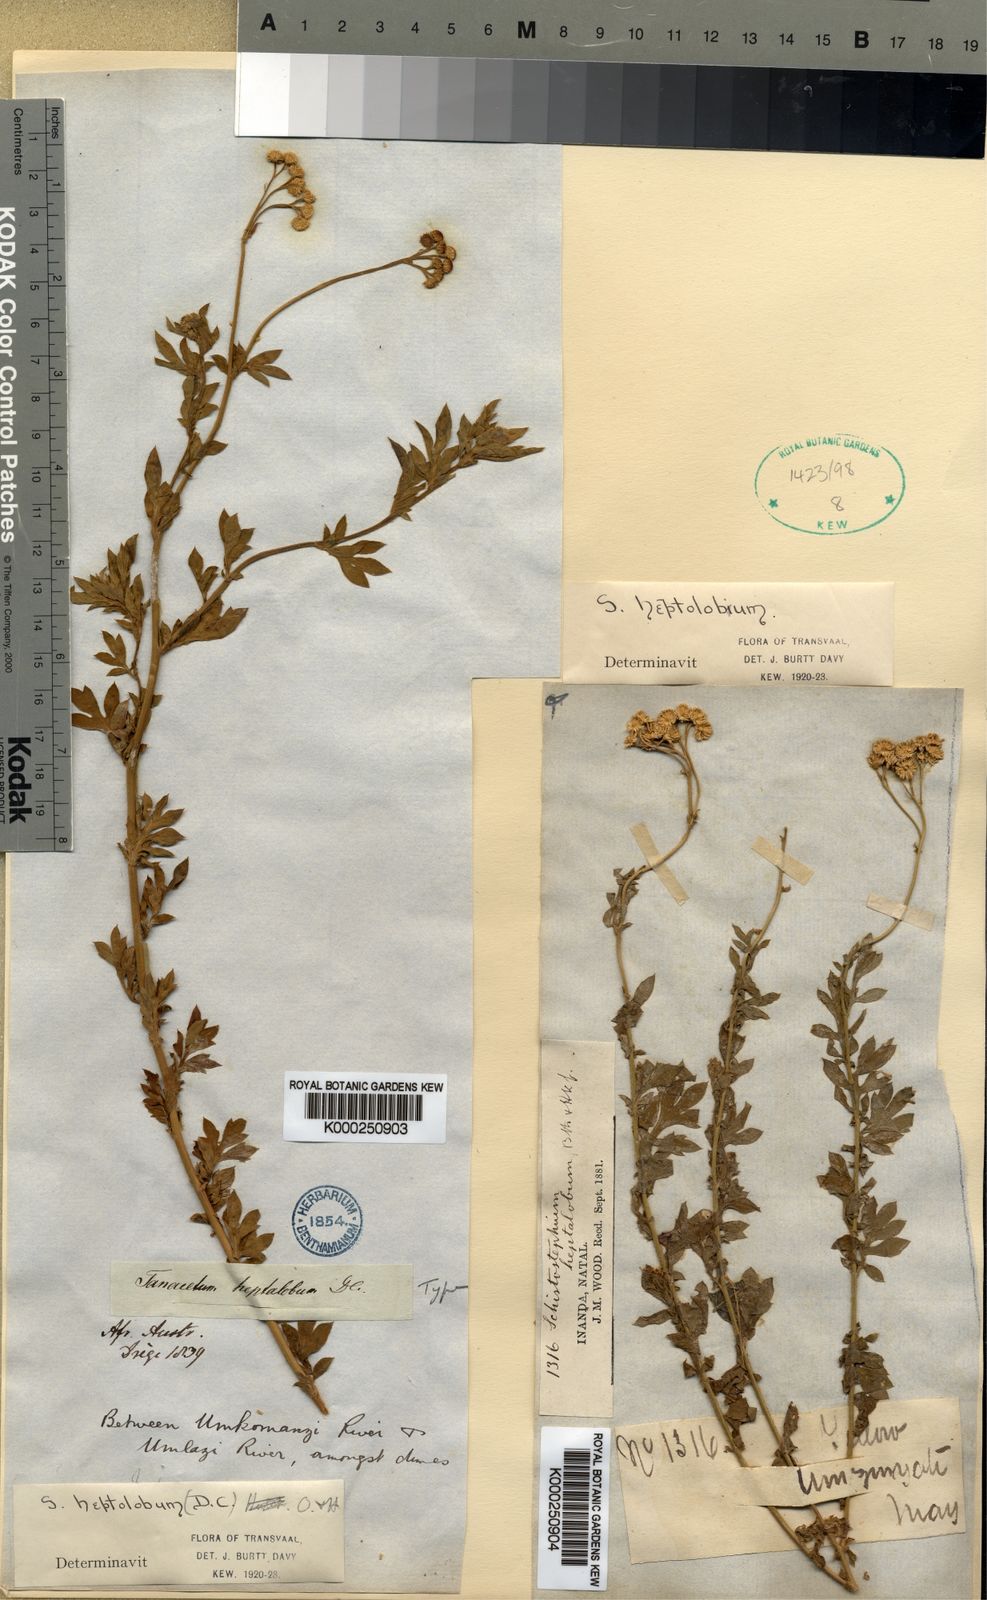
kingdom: Plantae
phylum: Tracheophyta
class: Magnoliopsida
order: Asterales
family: Asteraceae
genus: Schistostephium
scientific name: Schistostephium crataegifolium
